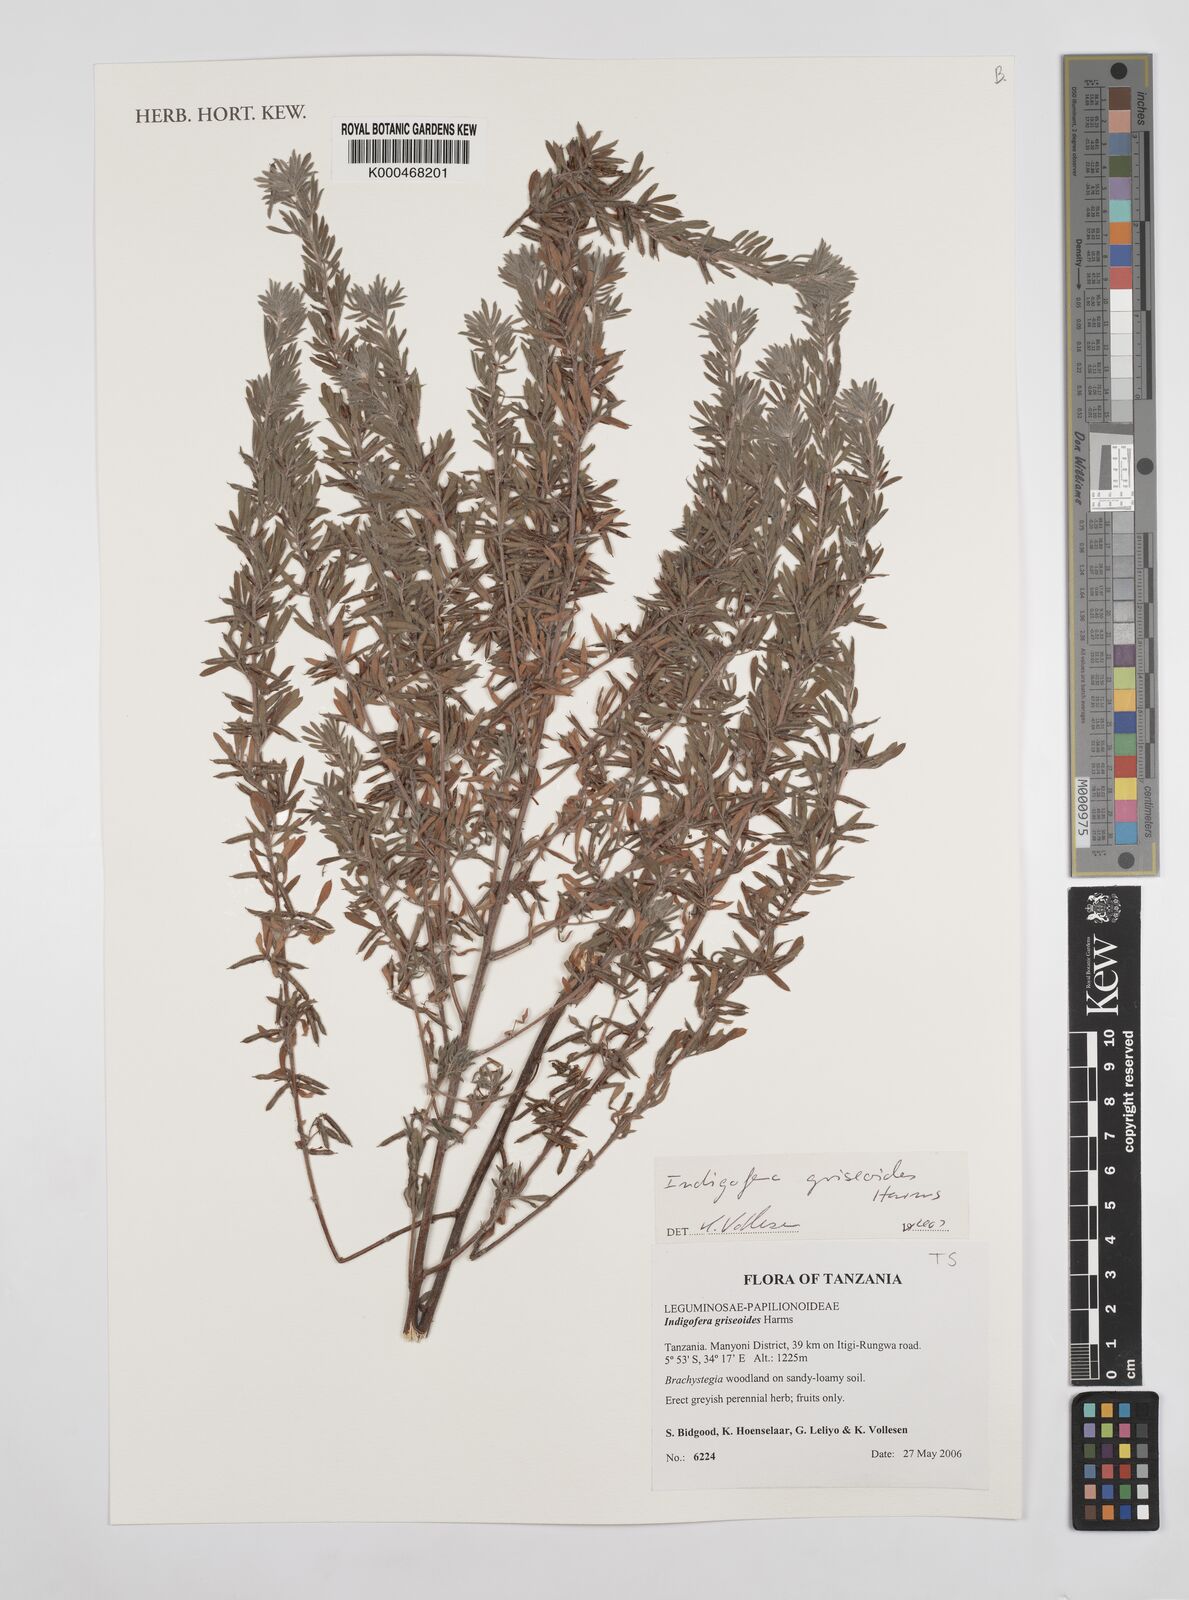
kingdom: Plantae
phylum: Tracheophyta
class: Magnoliopsida
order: Fabales
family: Fabaceae
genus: Indigofera
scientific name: Indigofera griseoides
